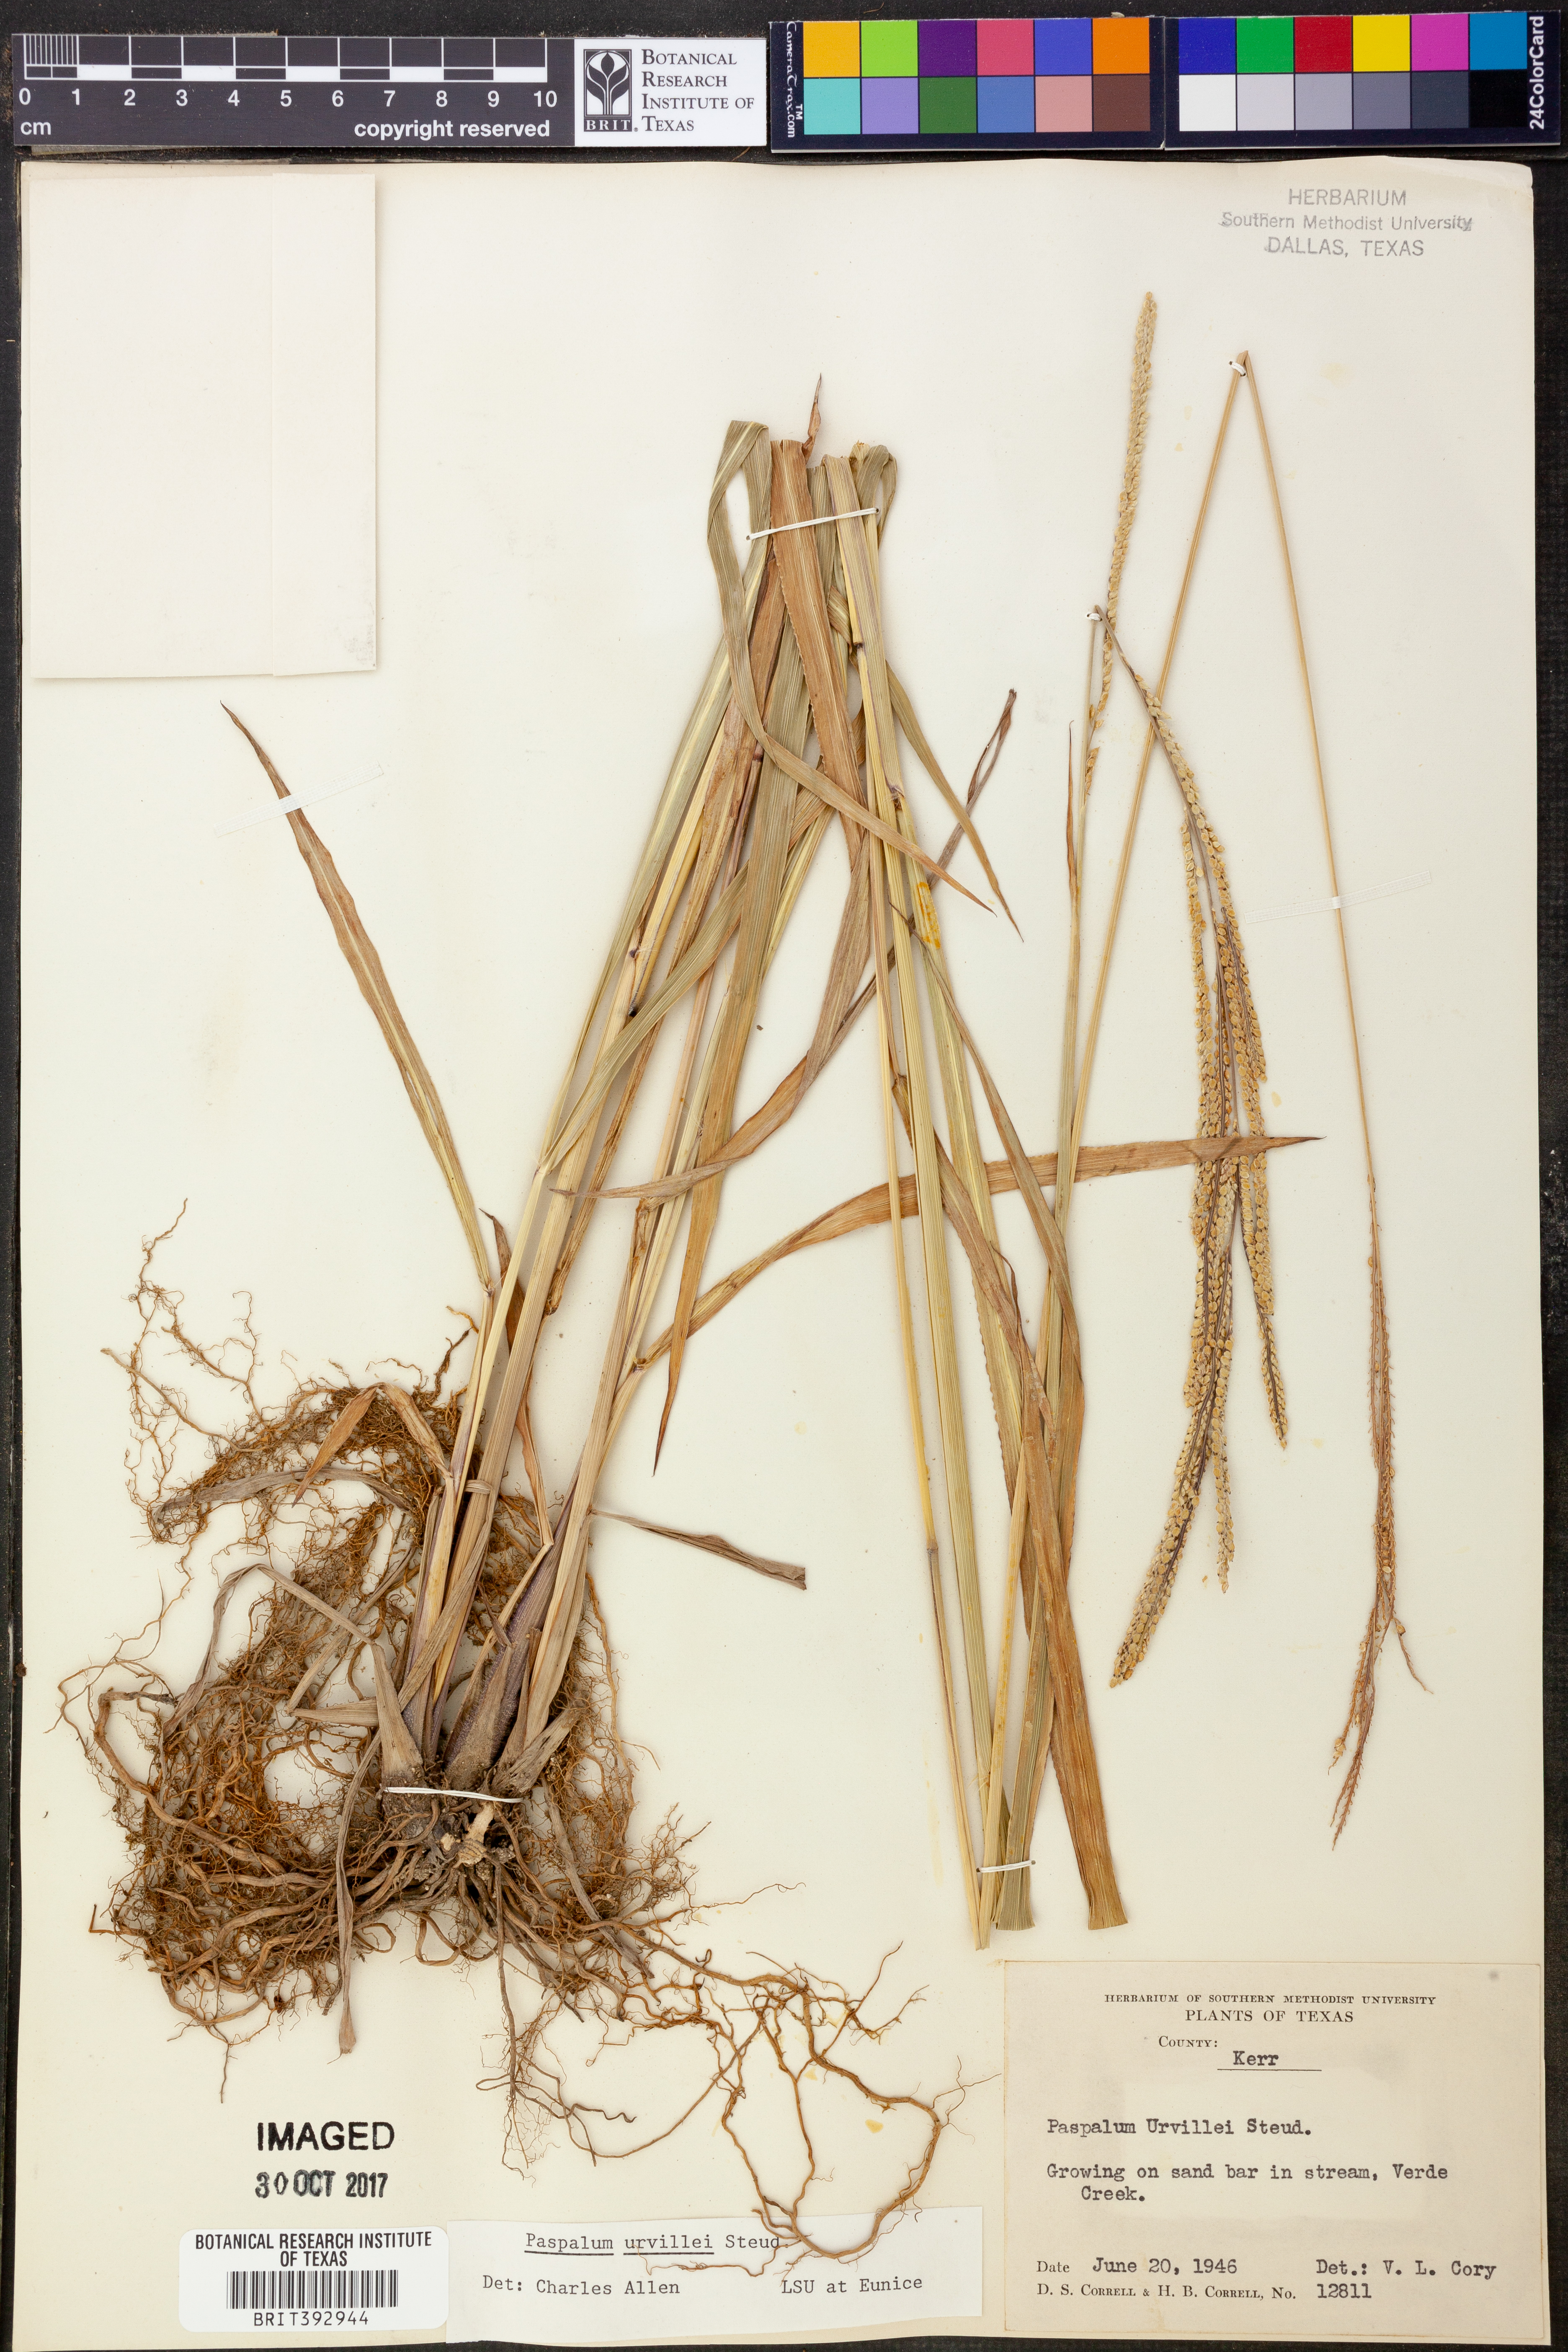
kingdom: Plantae
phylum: Tracheophyta
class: Liliopsida
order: Poales
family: Poaceae
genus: Paspalum
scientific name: Paspalum urvillei
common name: Vasey's grass
